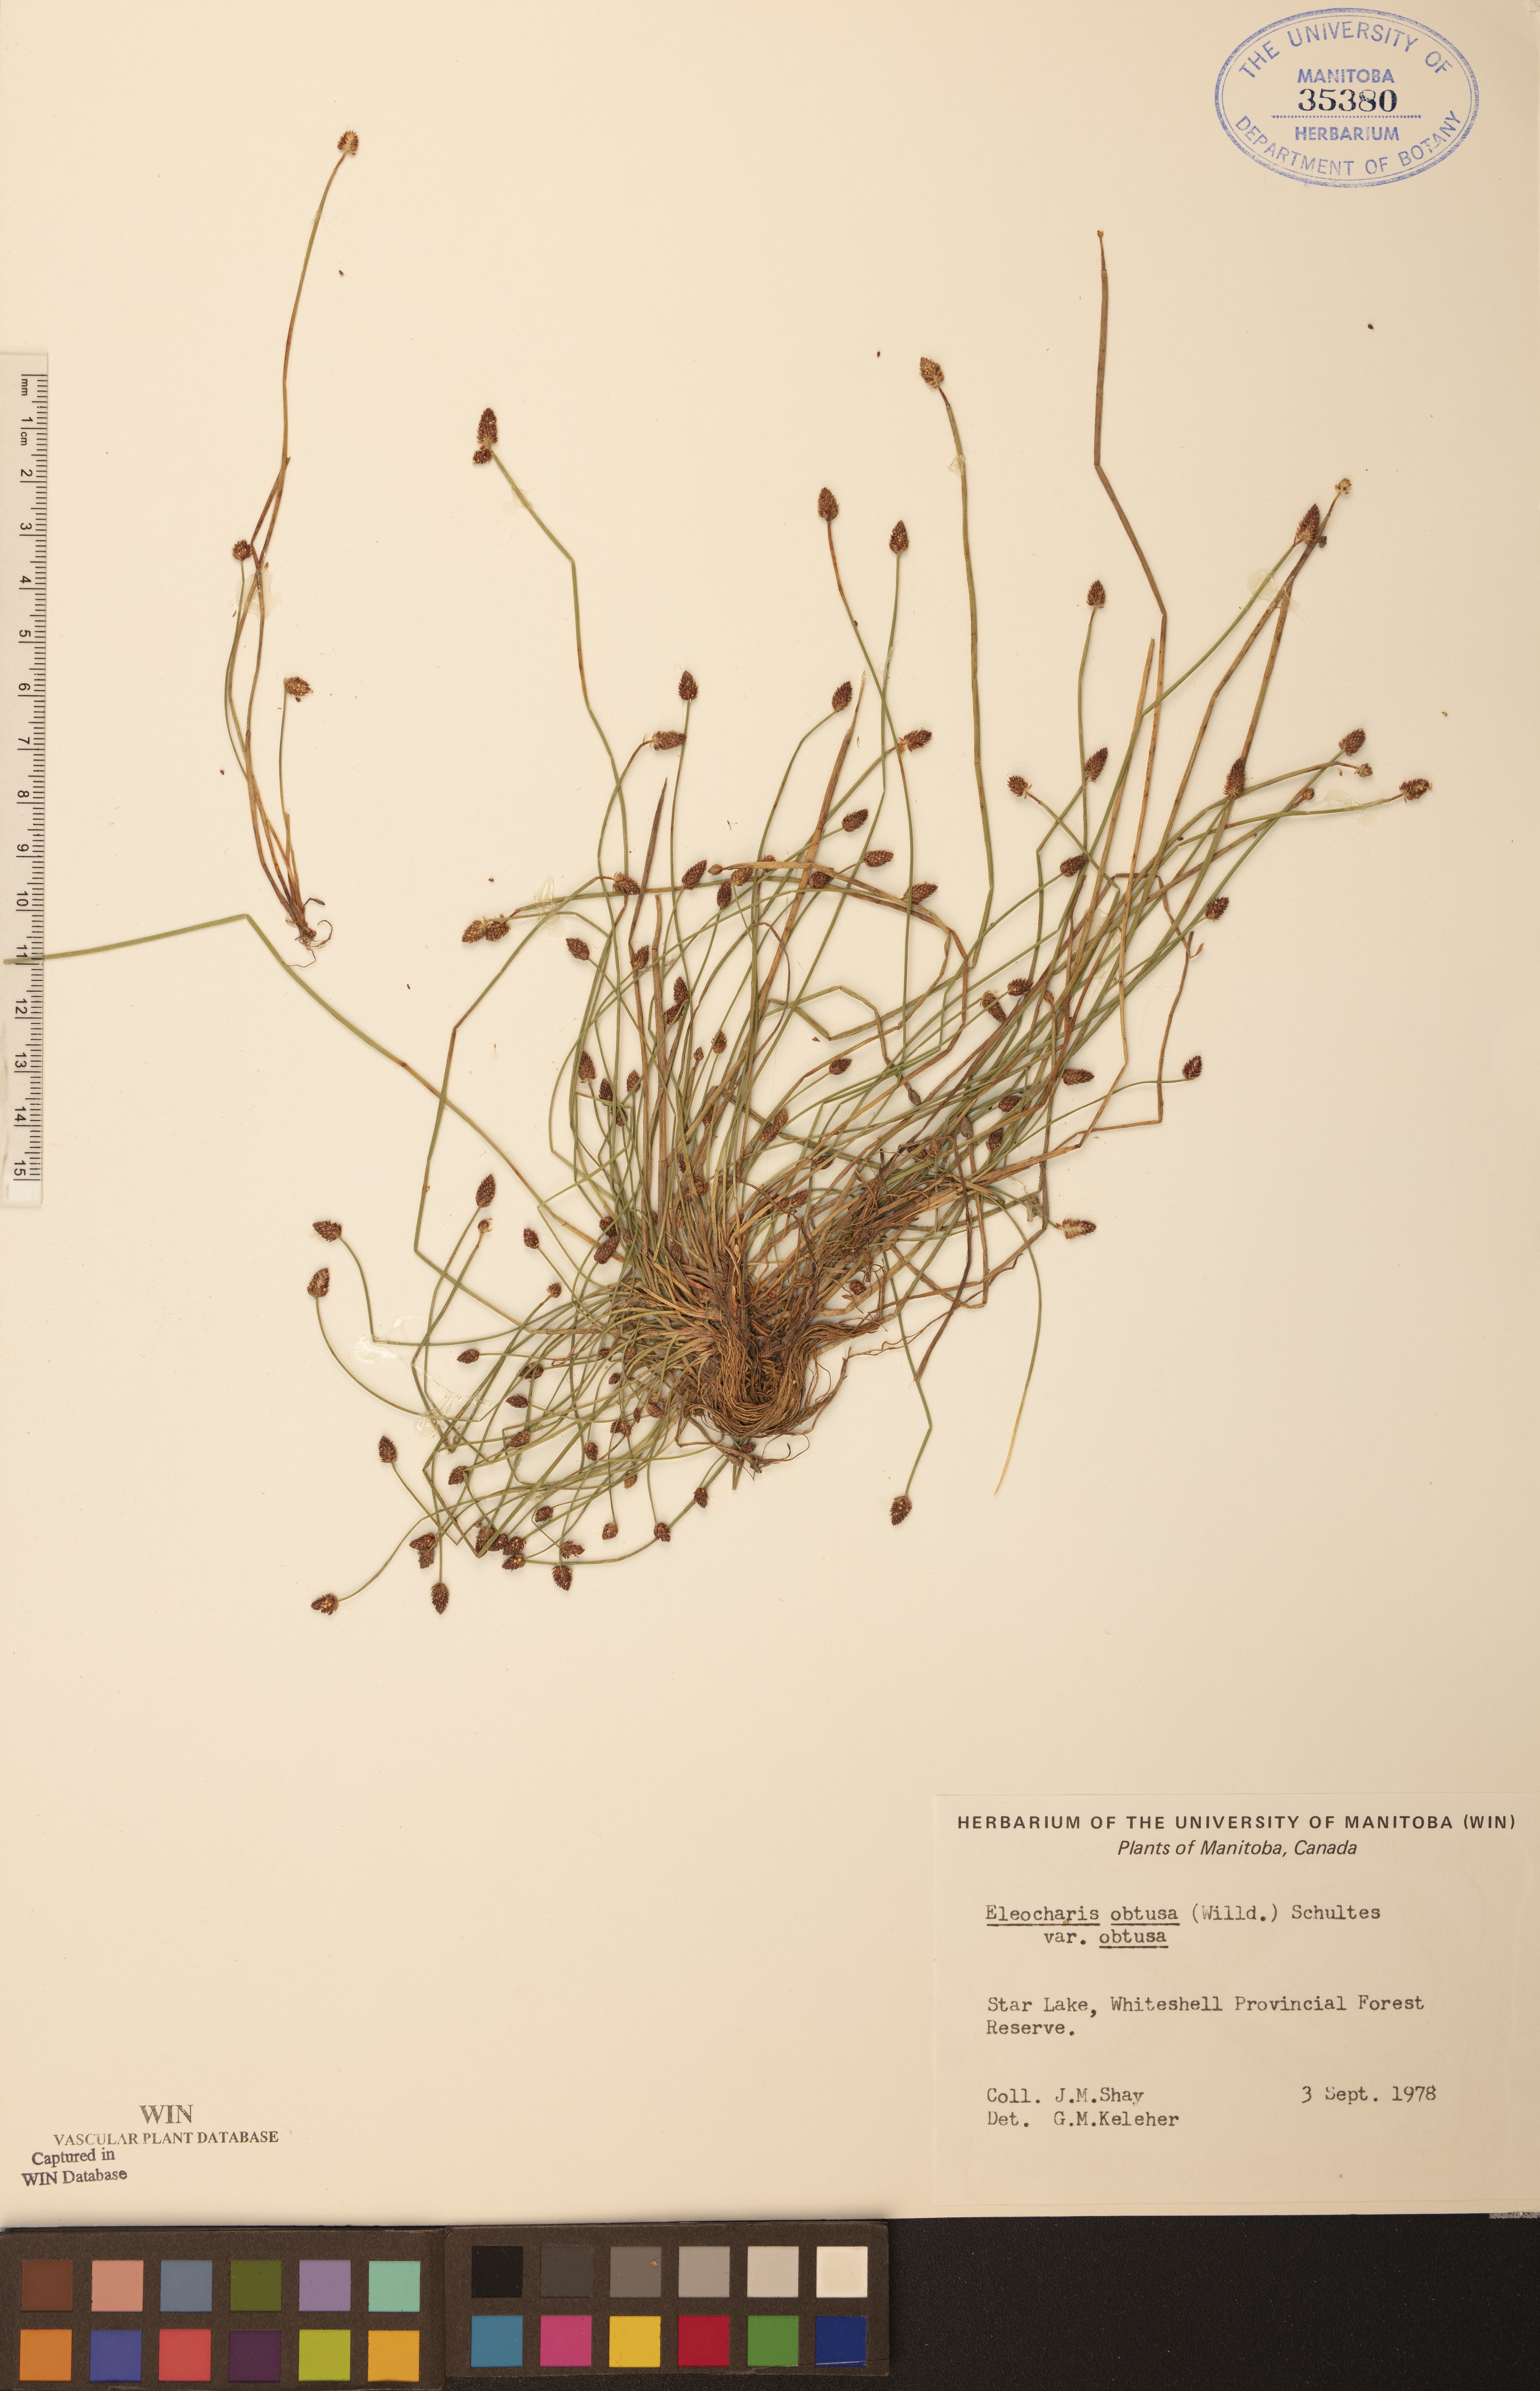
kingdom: Plantae
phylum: Tracheophyta
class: Liliopsida
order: Poales
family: Cyperaceae
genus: Eleocharis
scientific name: Eleocharis obtusa
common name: Blunt spikerush
